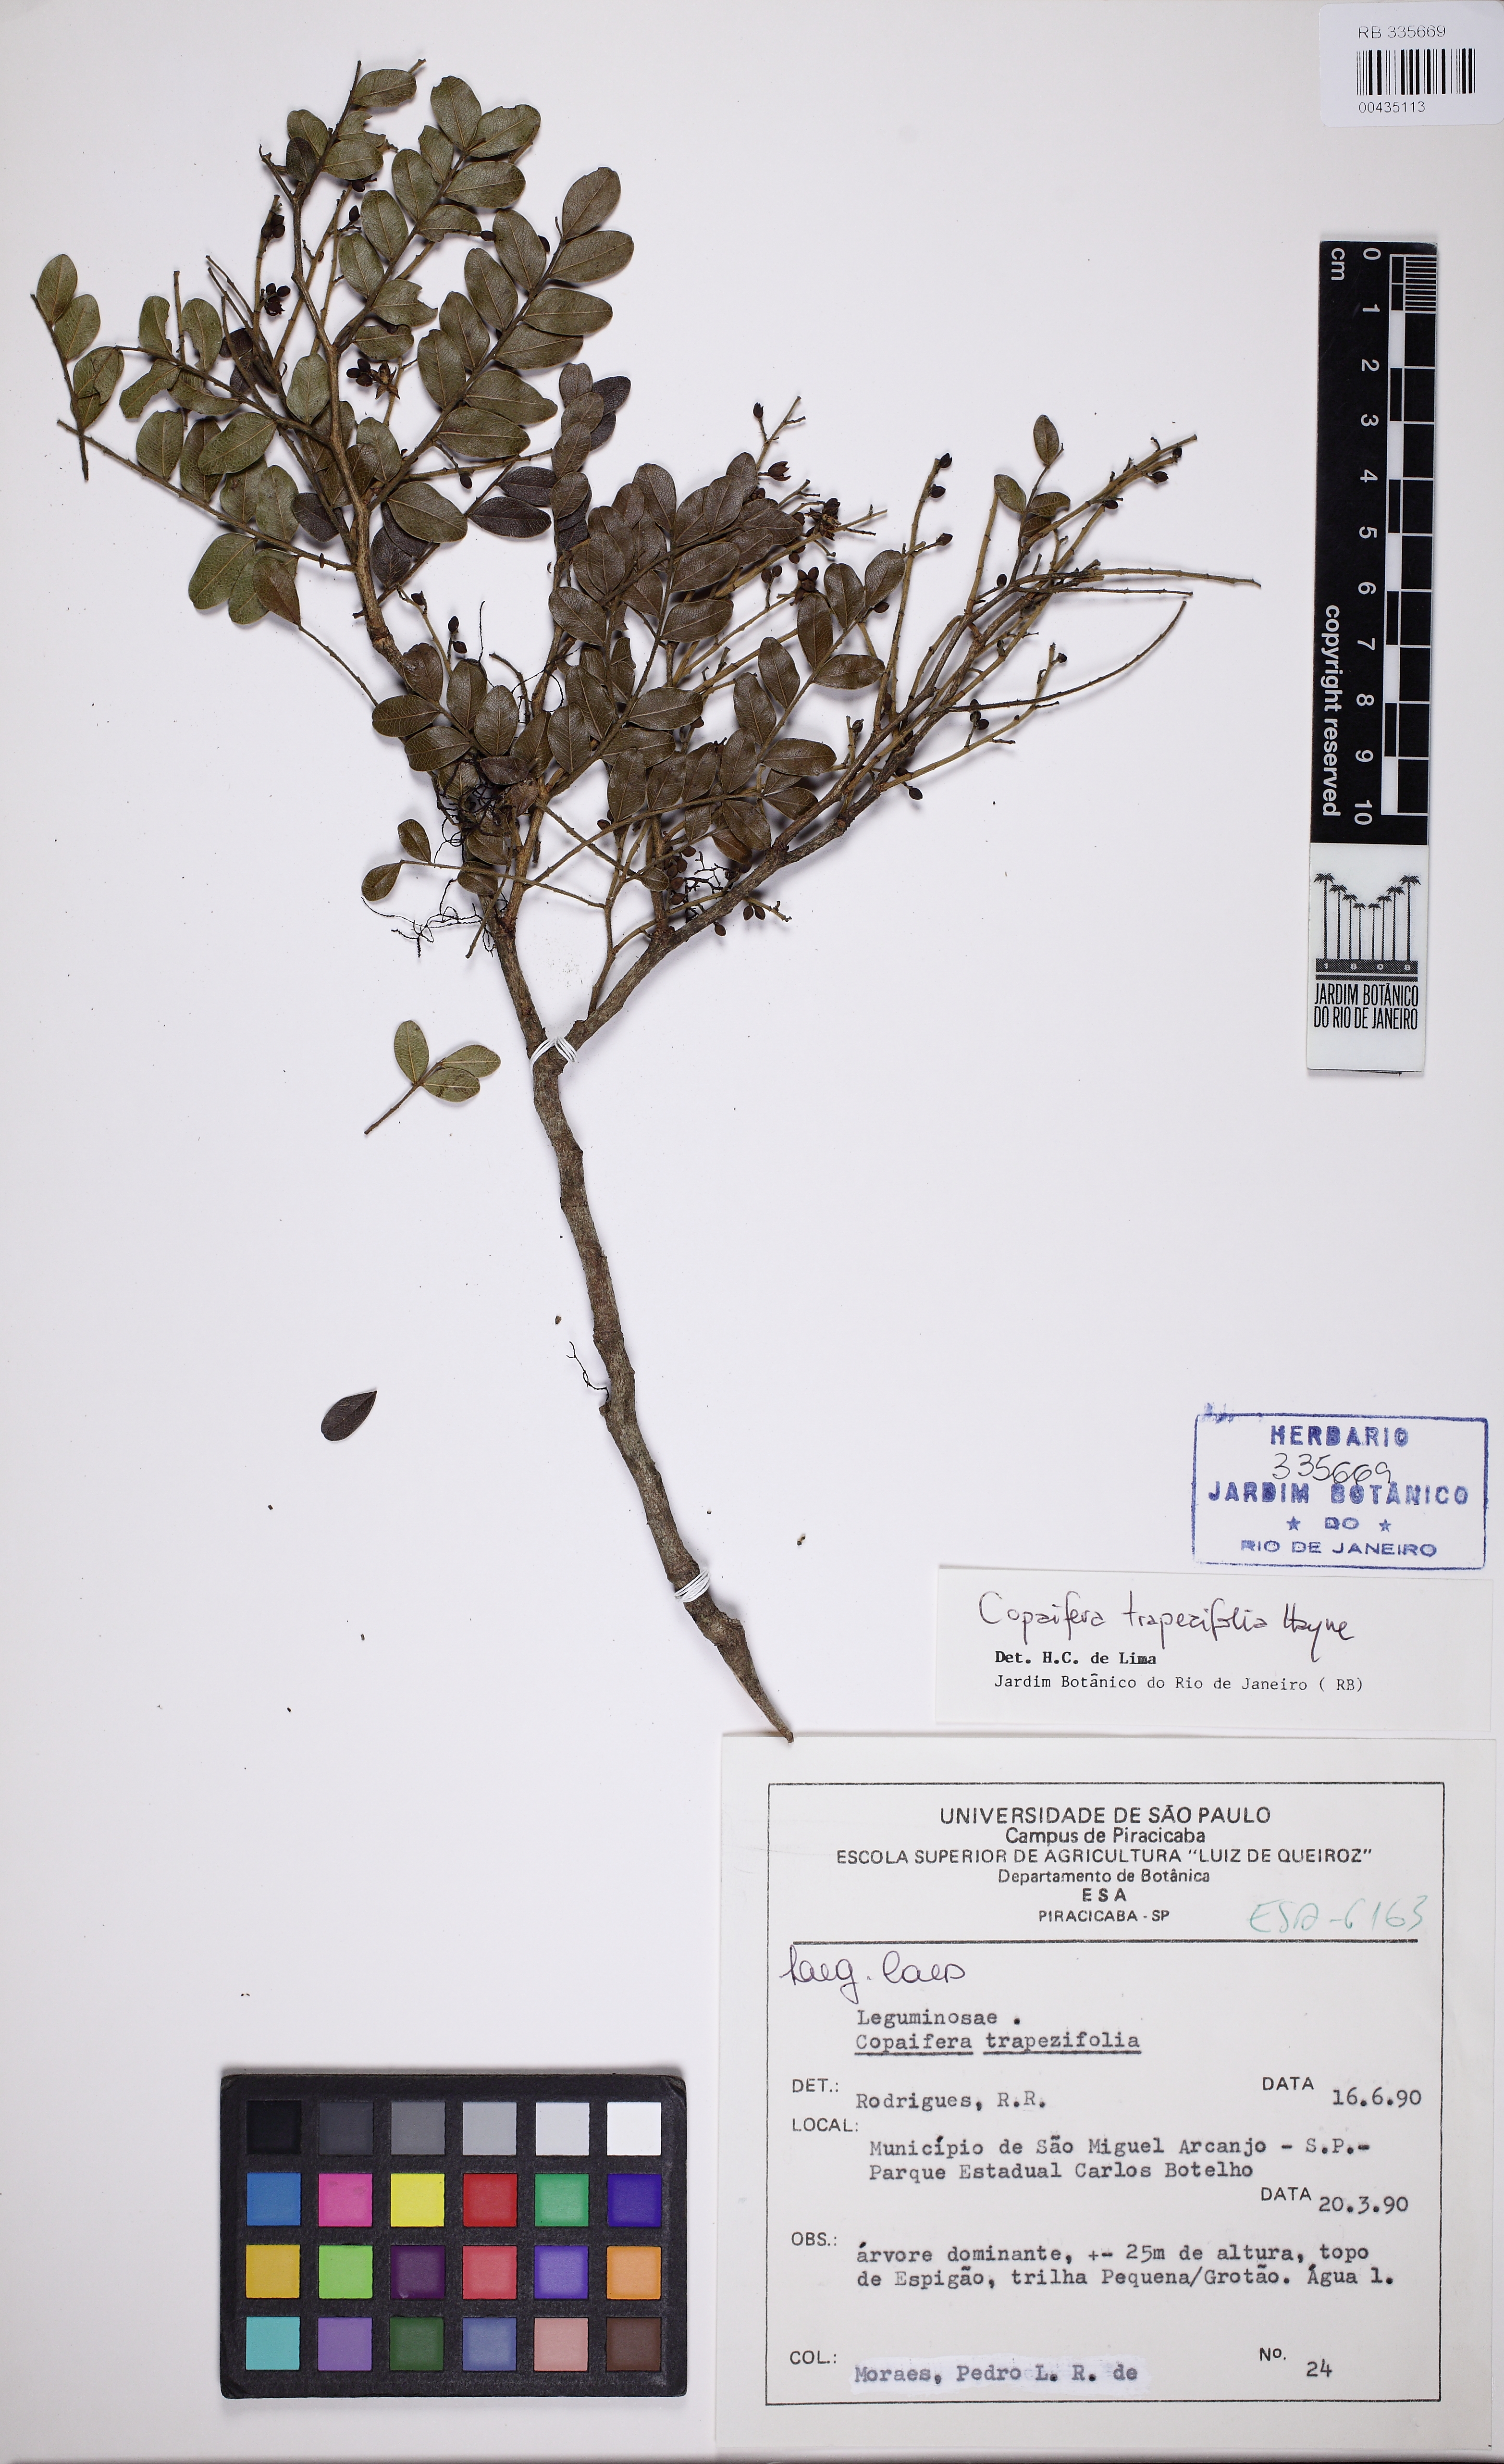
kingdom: Plantae
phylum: Tracheophyta
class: Magnoliopsida
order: Fabales
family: Fabaceae
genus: Copaifera
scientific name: Copaifera trapezifolia
